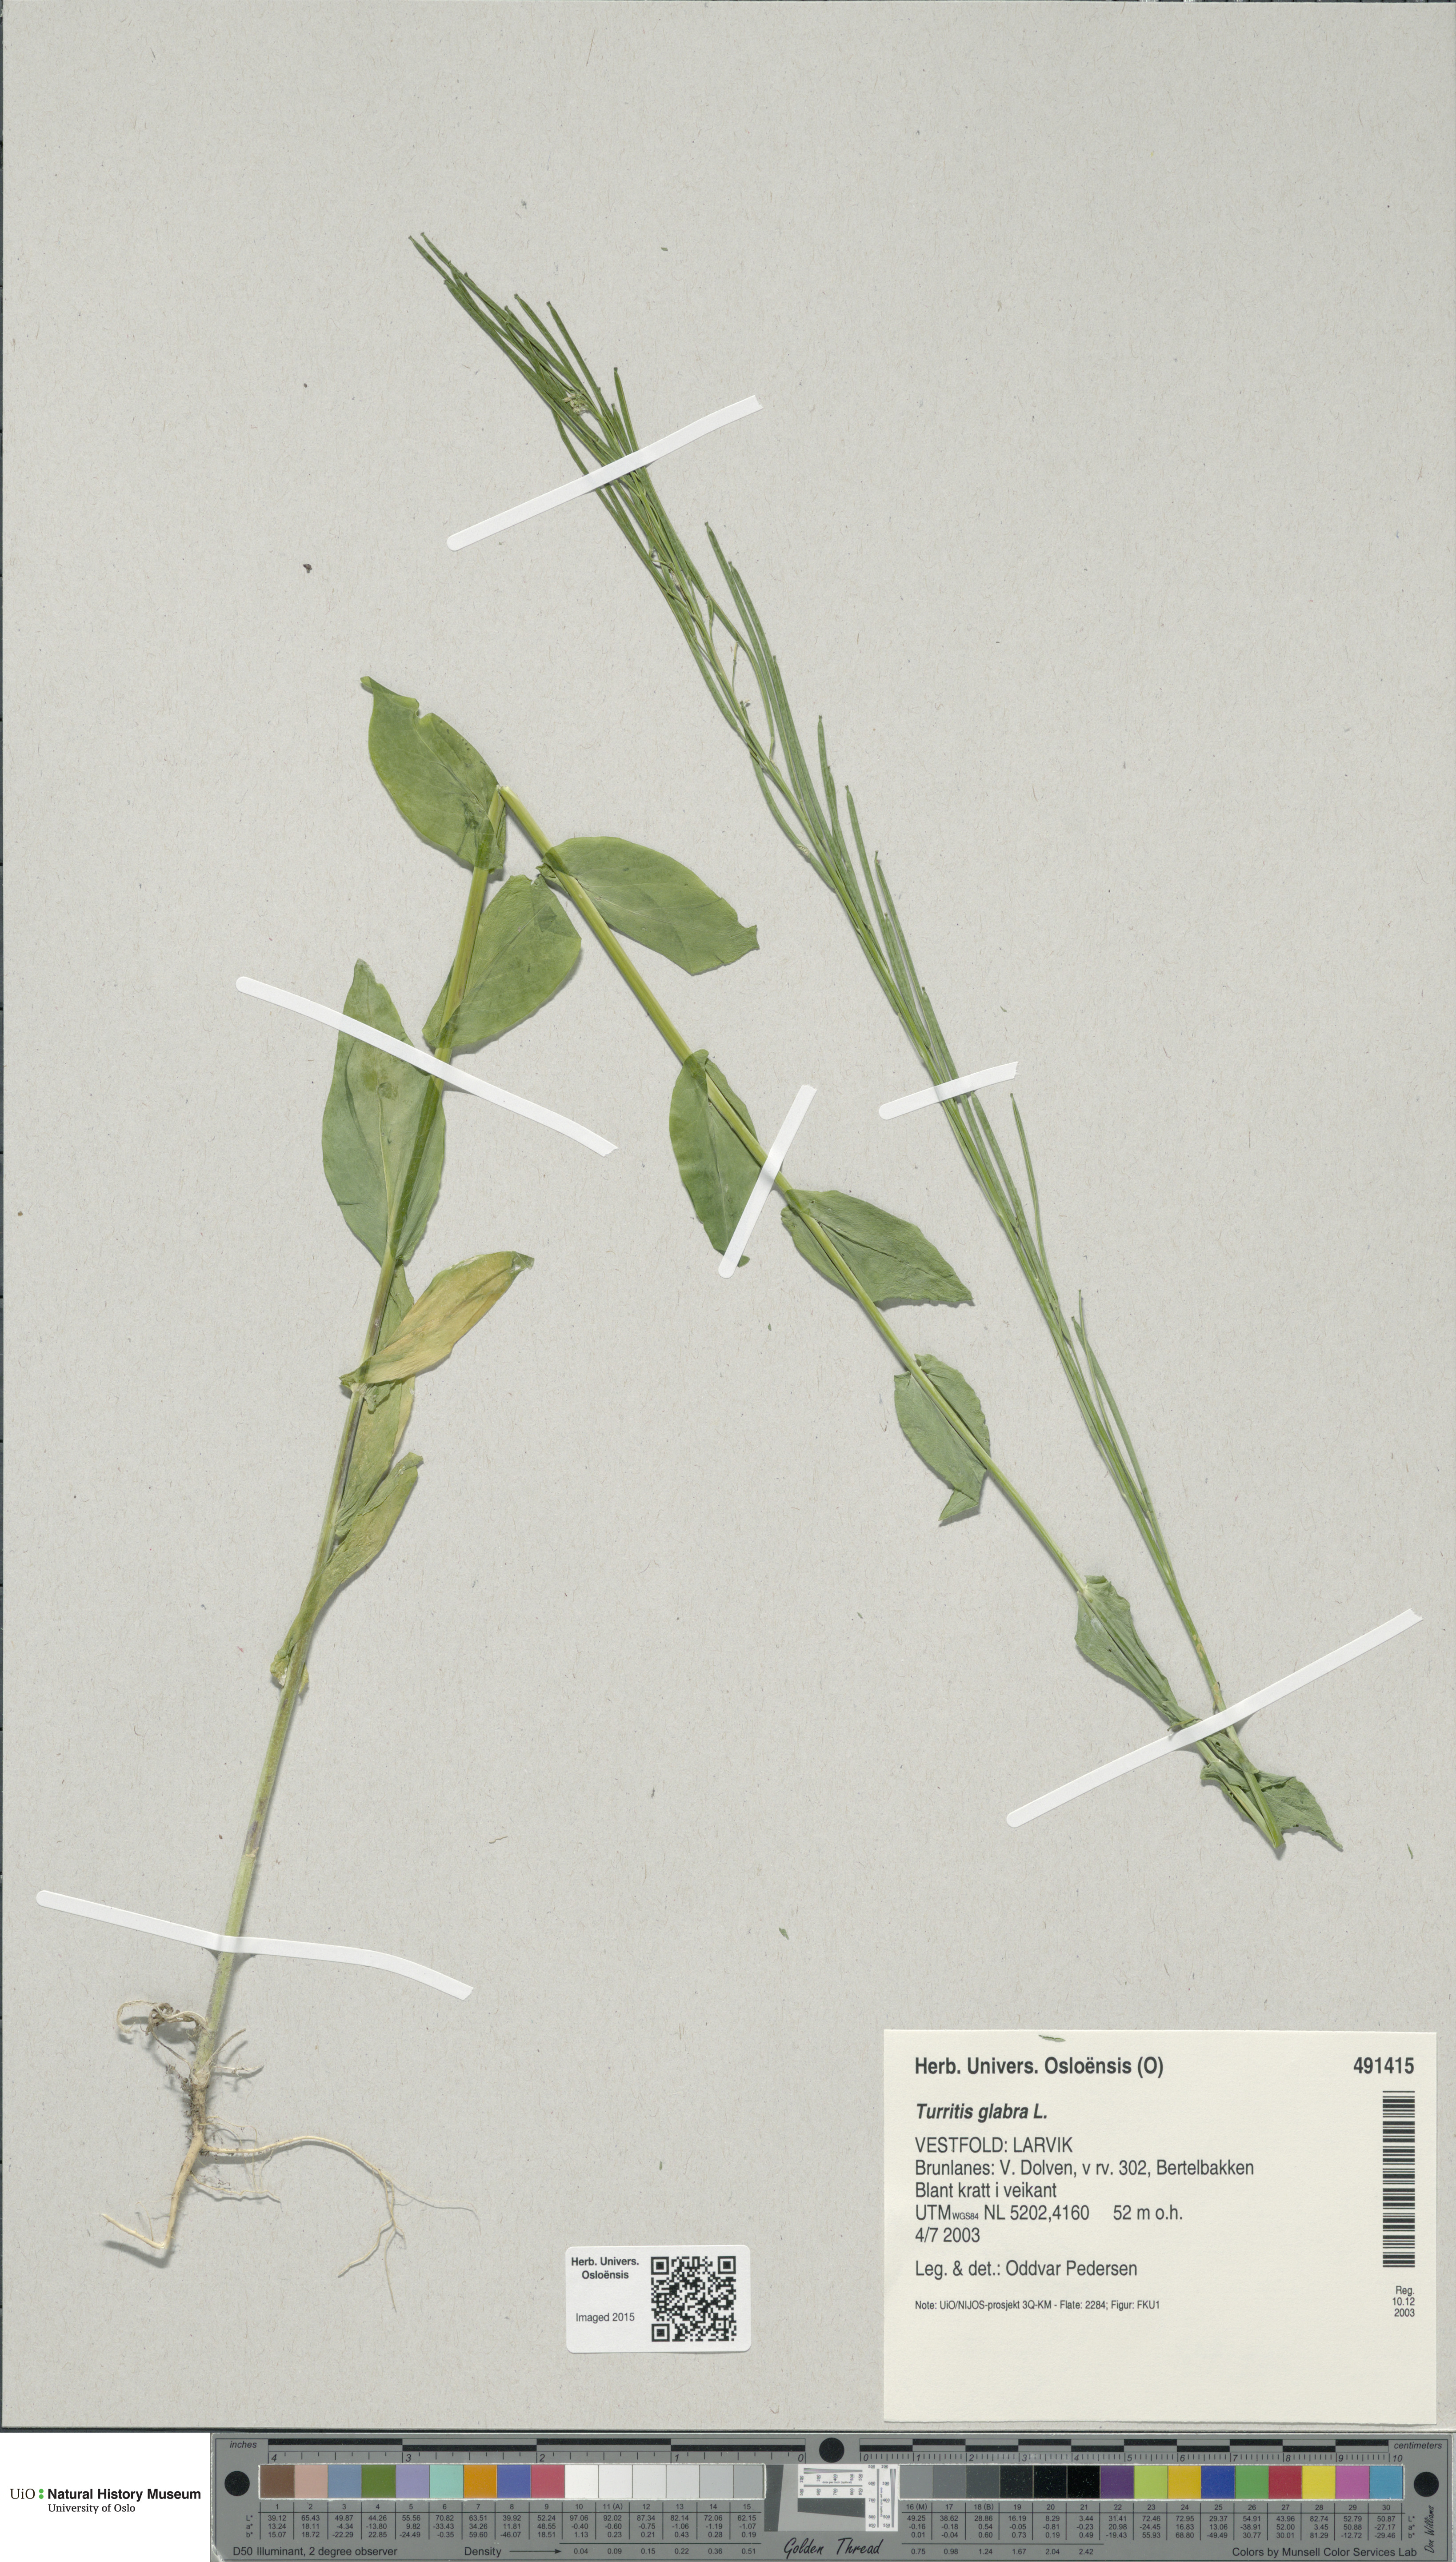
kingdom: Plantae
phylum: Tracheophyta
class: Magnoliopsida
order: Brassicales
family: Brassicaceae
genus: Turritis
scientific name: Turritis glabra
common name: Tower rockcress
